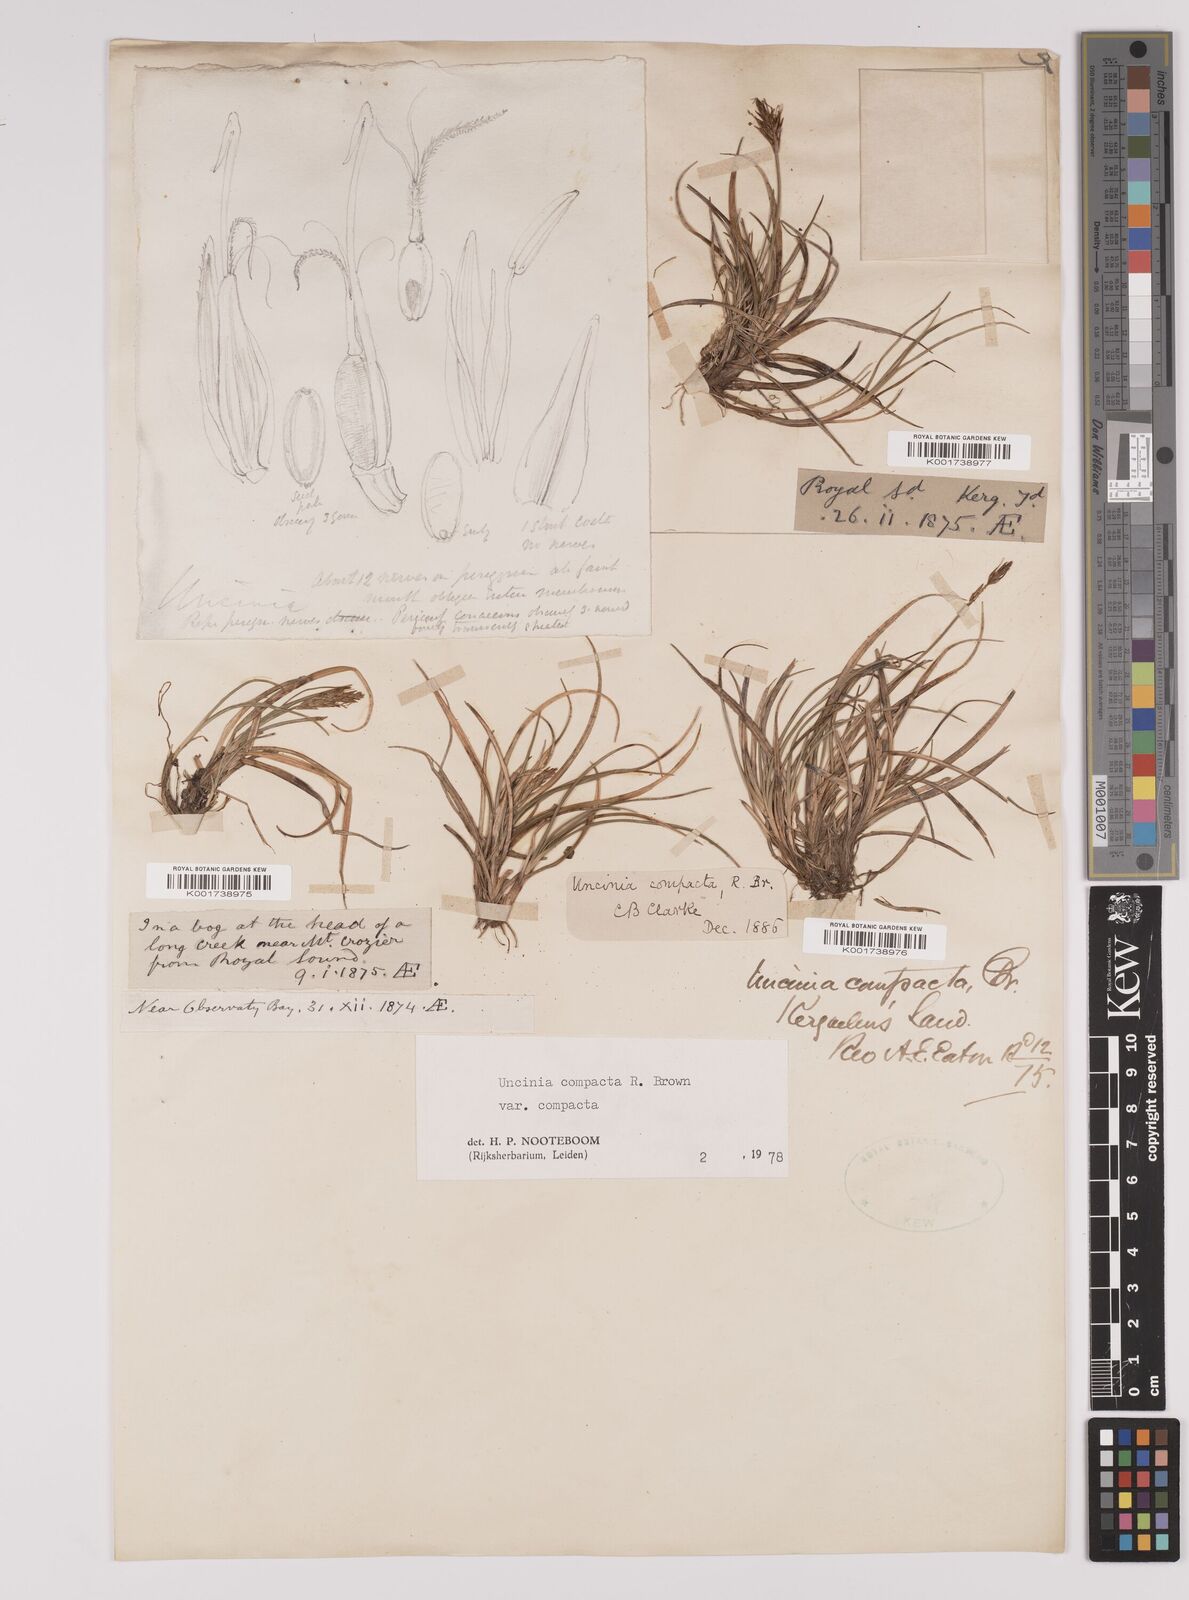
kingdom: Plantae
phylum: Tracheophyta
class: Liliopsida
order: Poales
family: Cyperaceae
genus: Carex
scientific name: Carex austrocompacta
